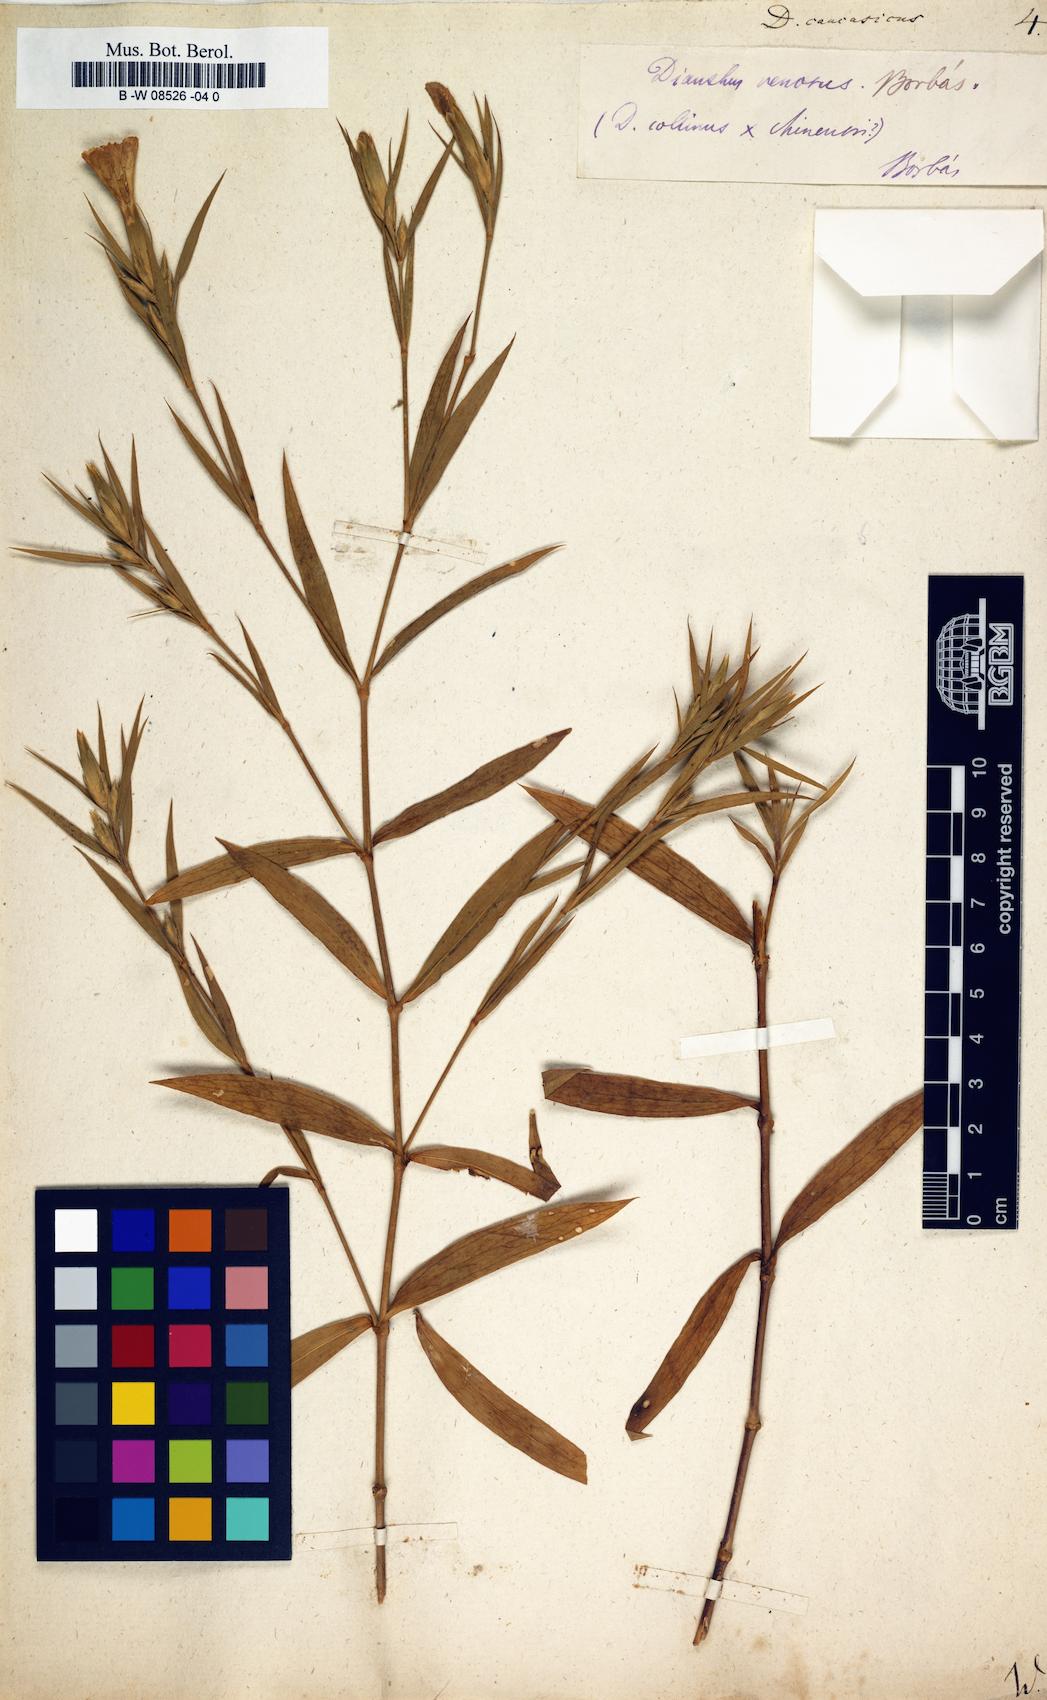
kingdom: Plantae
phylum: Tracheophyta
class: Magnoliopsida
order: Caryophyllales
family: Caryophyllaceae
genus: Dianthus
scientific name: Dianthus
